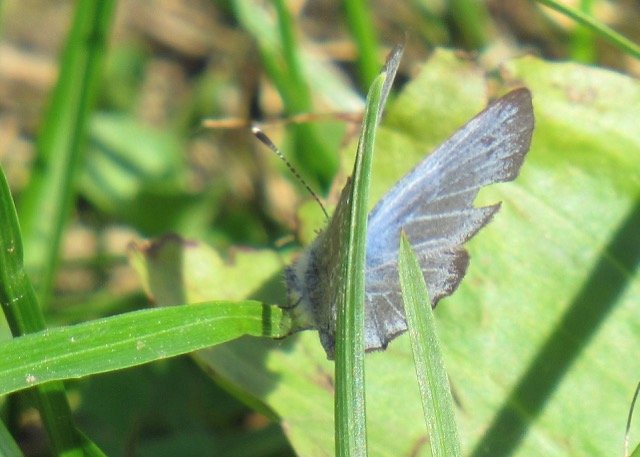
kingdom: Animalia
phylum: Arthropoda
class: Insecta
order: Lepidoptera
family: Lycaenidae
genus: Glaucopsyche
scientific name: Glaucopsyche lygdamus
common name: Silvery Blue
